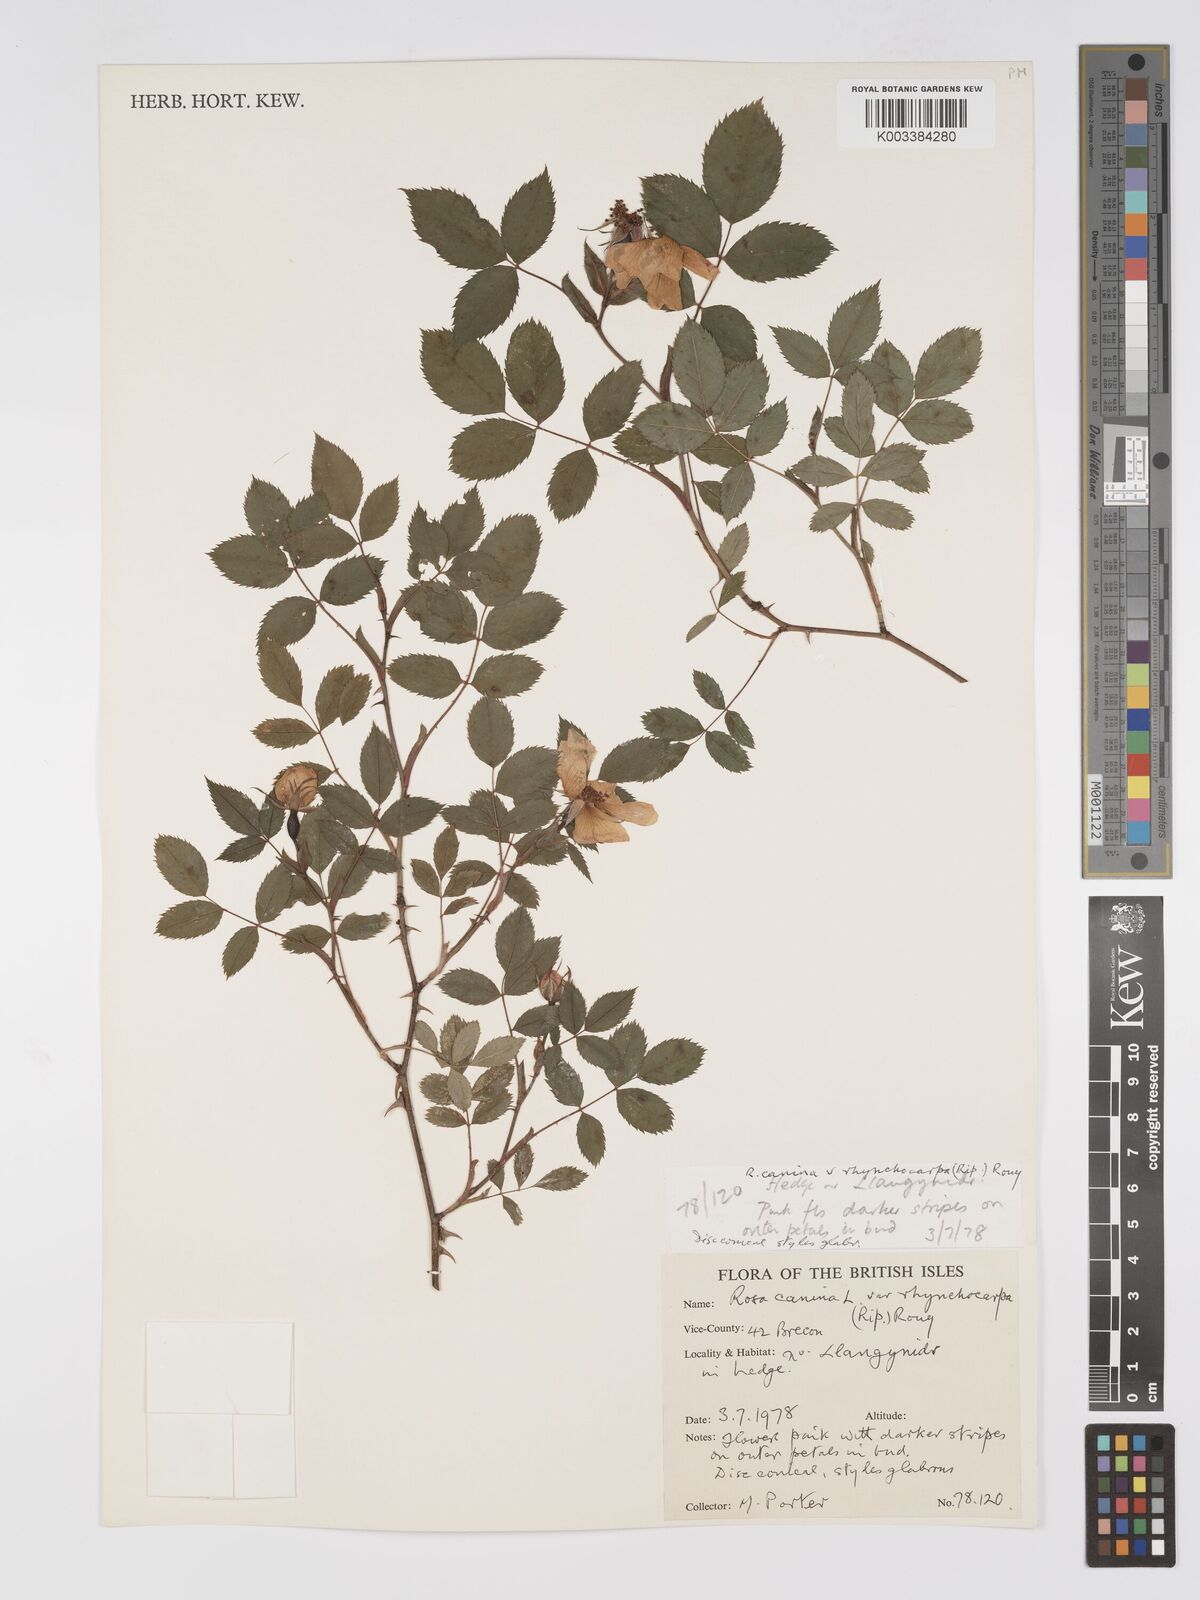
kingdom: Plantae
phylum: Tracheophyta
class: Magnoliopsida
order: Rosales
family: Rosaceae
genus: Rosa
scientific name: Rosa canina
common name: Dog rose
